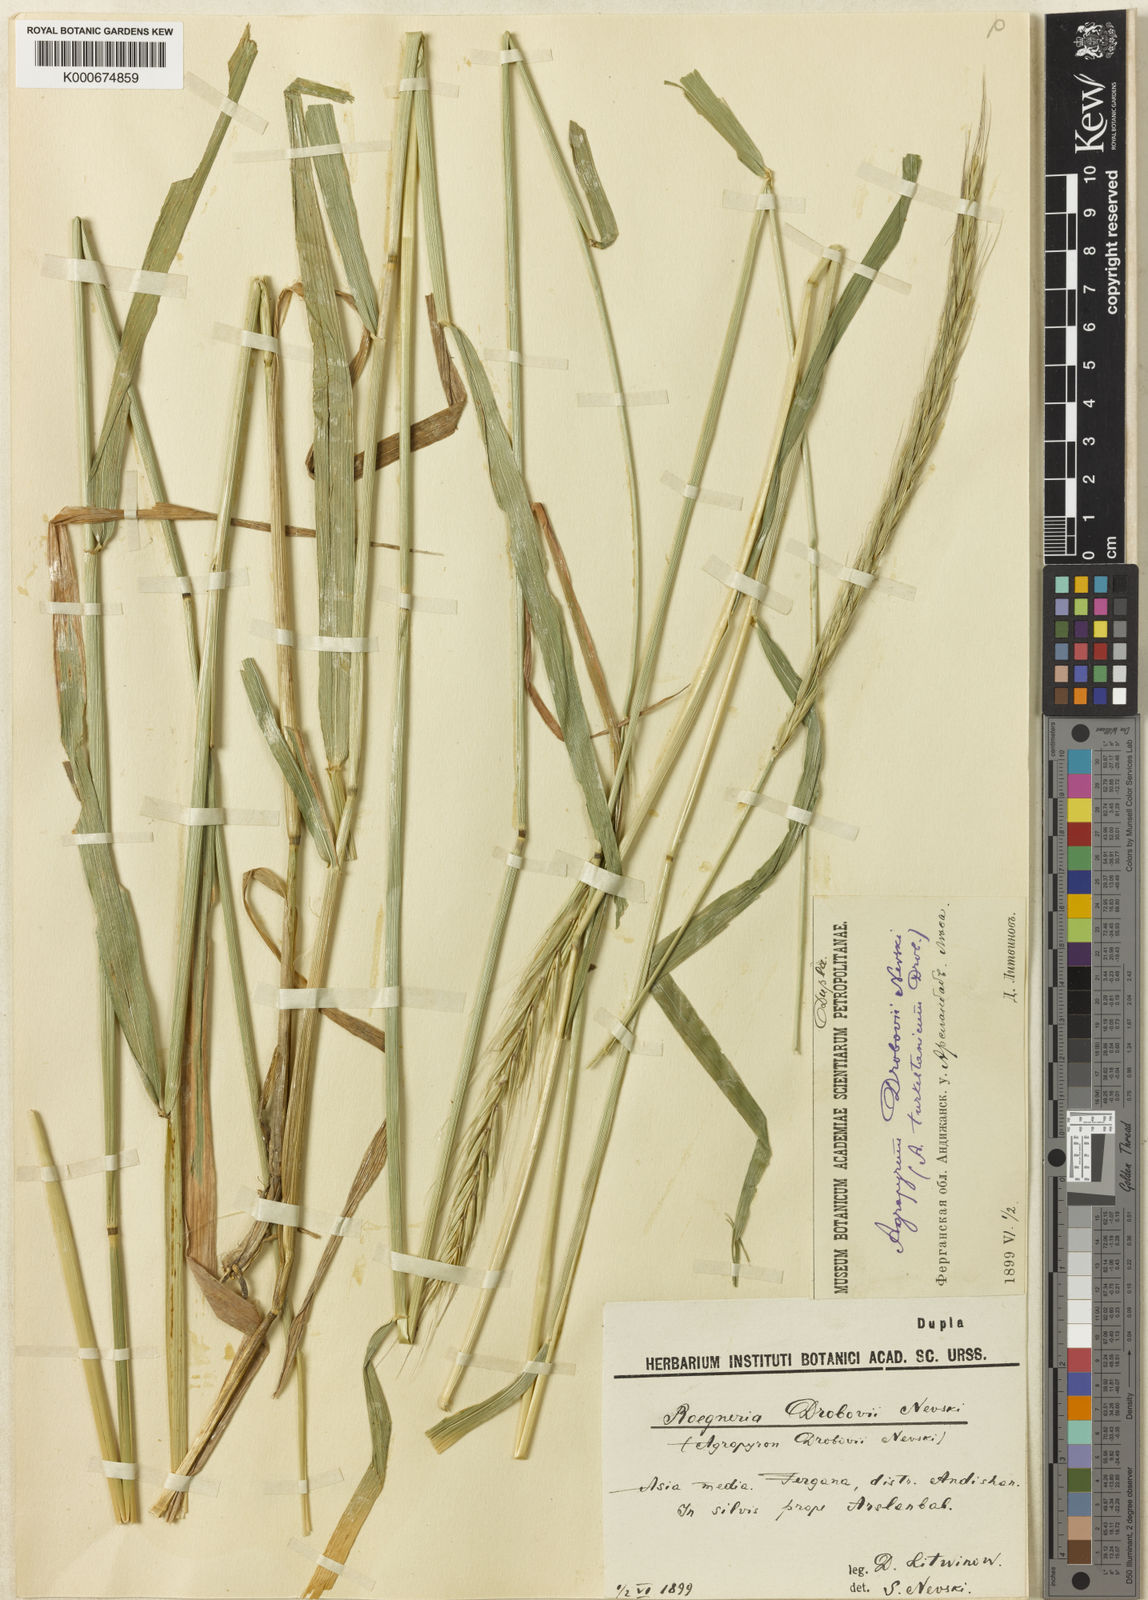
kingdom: Plantae
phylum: Tracheophyta
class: Liliopsida
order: Poales
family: Poaceae
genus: Elymus
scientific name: Elymus drobovii
